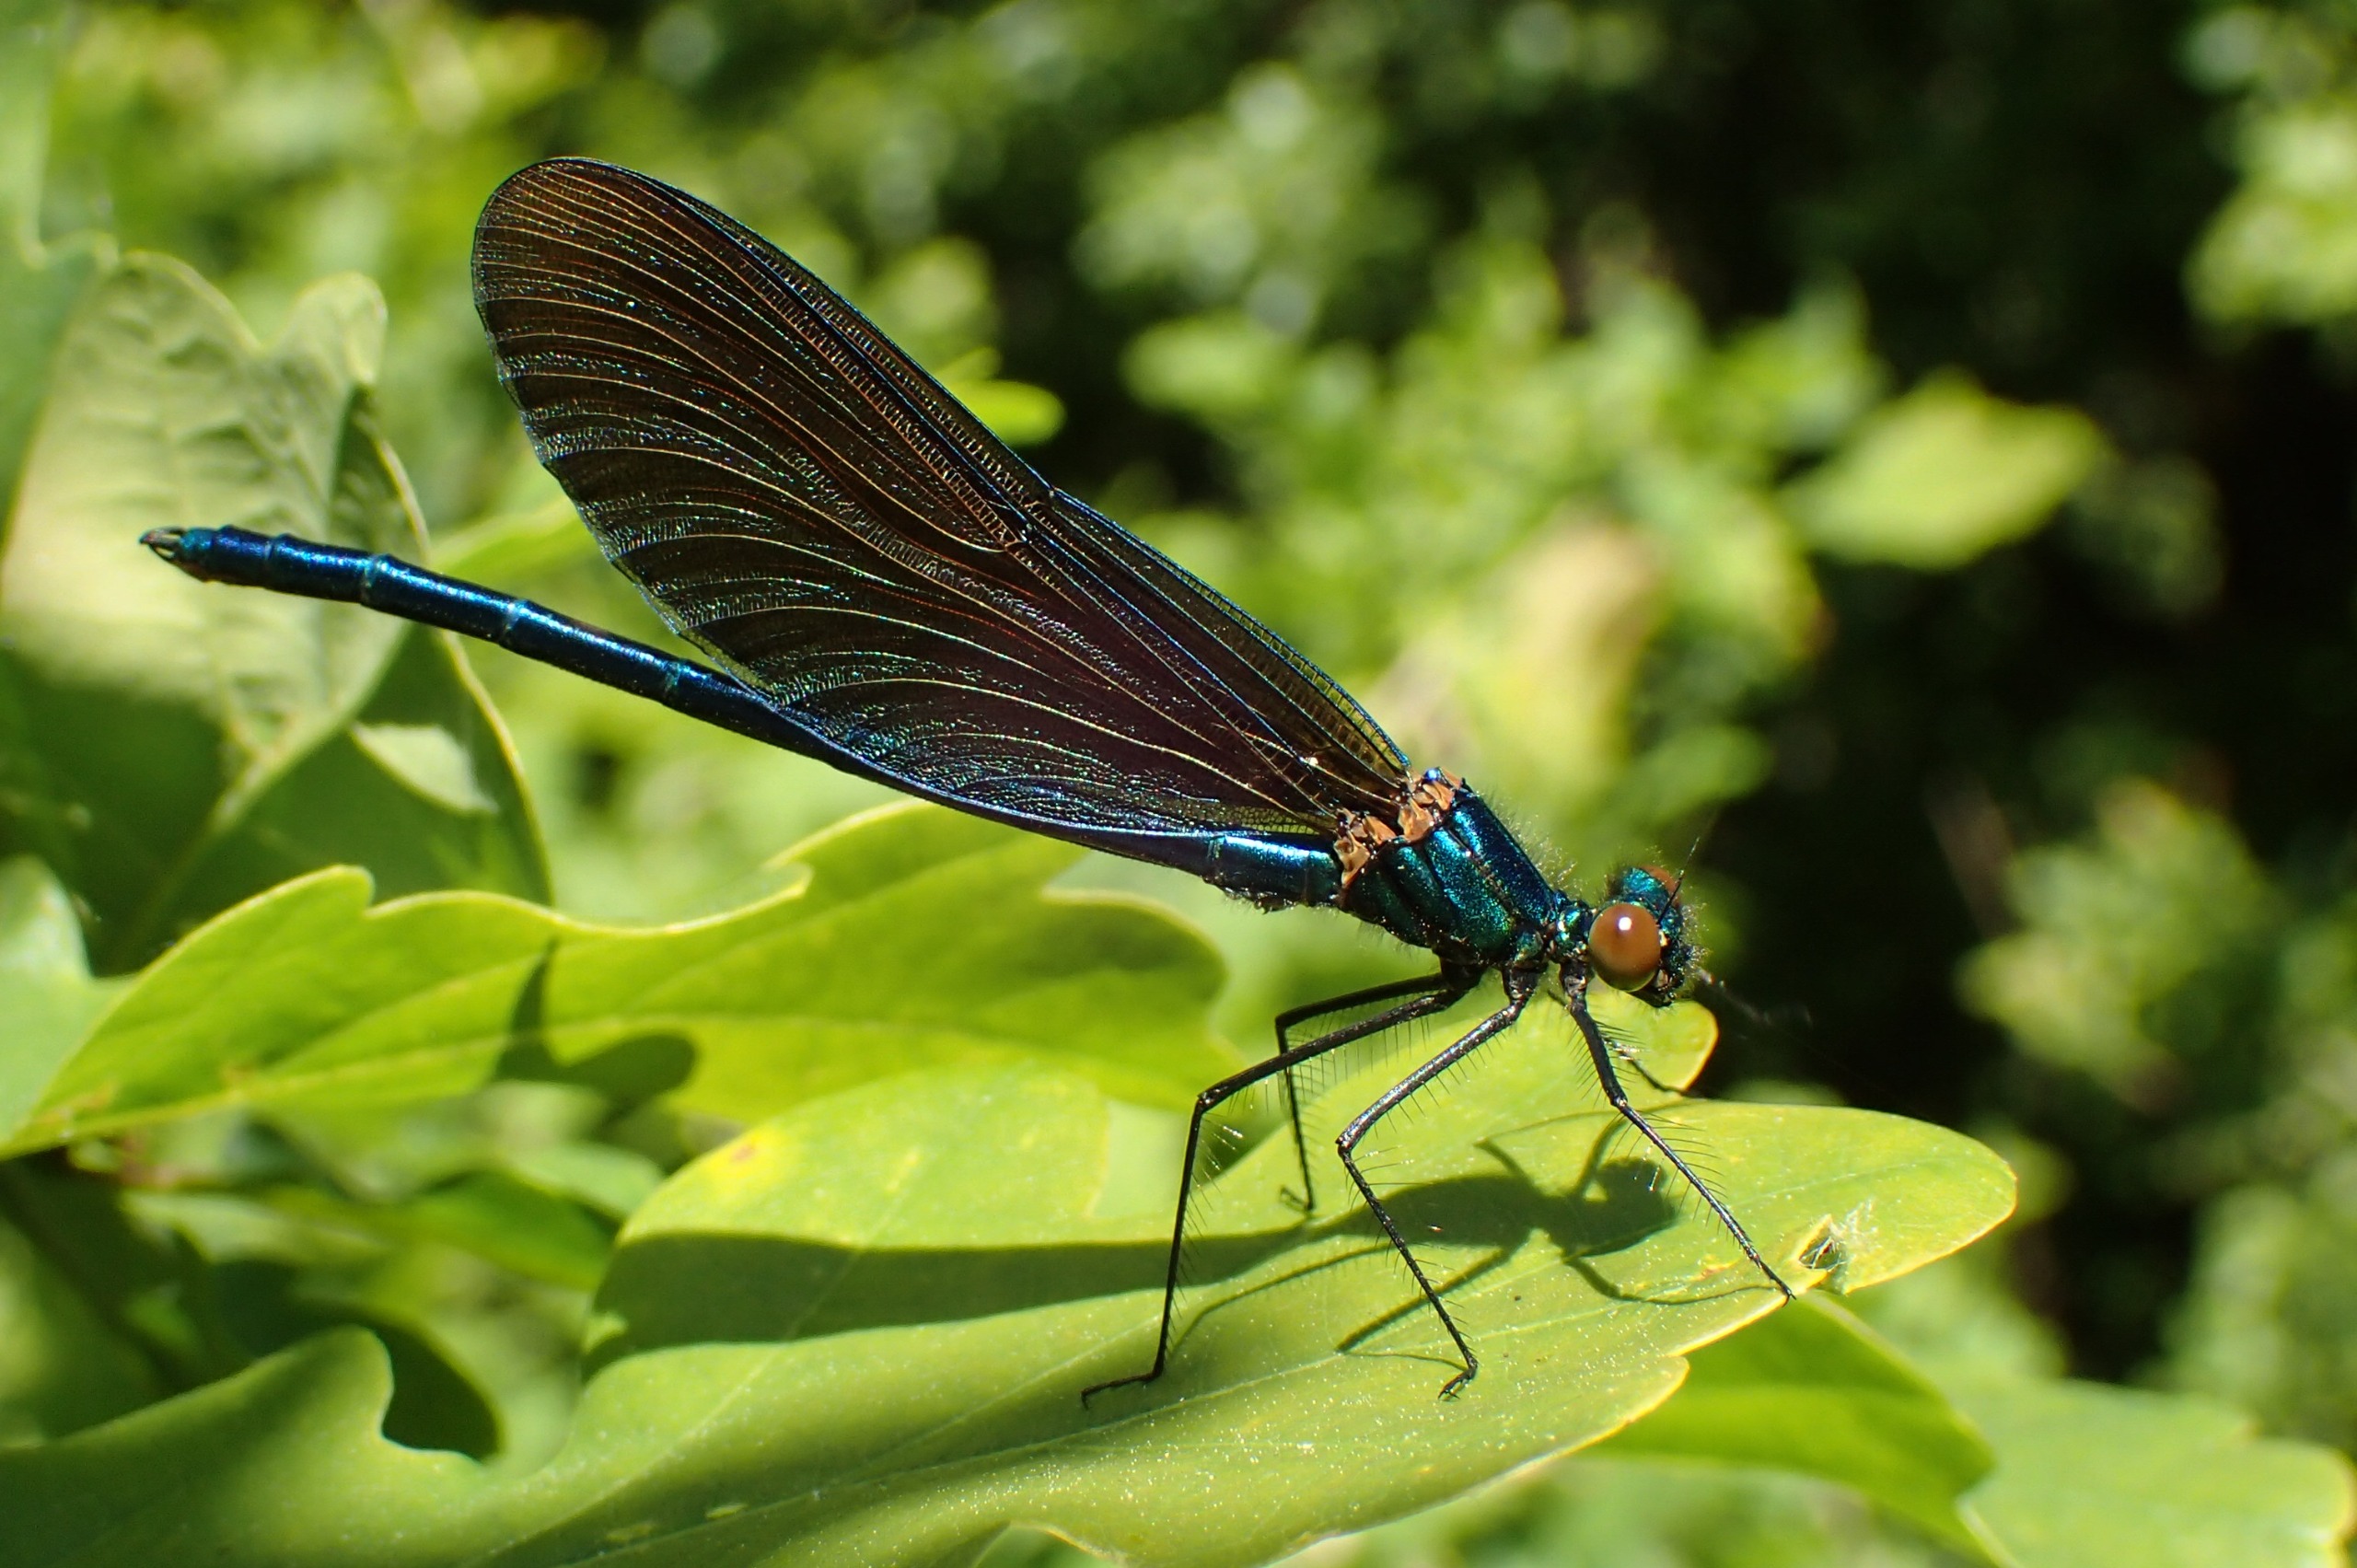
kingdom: Animalia
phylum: Arthropoda
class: Insecta
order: Odonata
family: Calopterygidae
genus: Calopteryx
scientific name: Calopteryx virgo
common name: Blåvinget pragtvandnymfe
